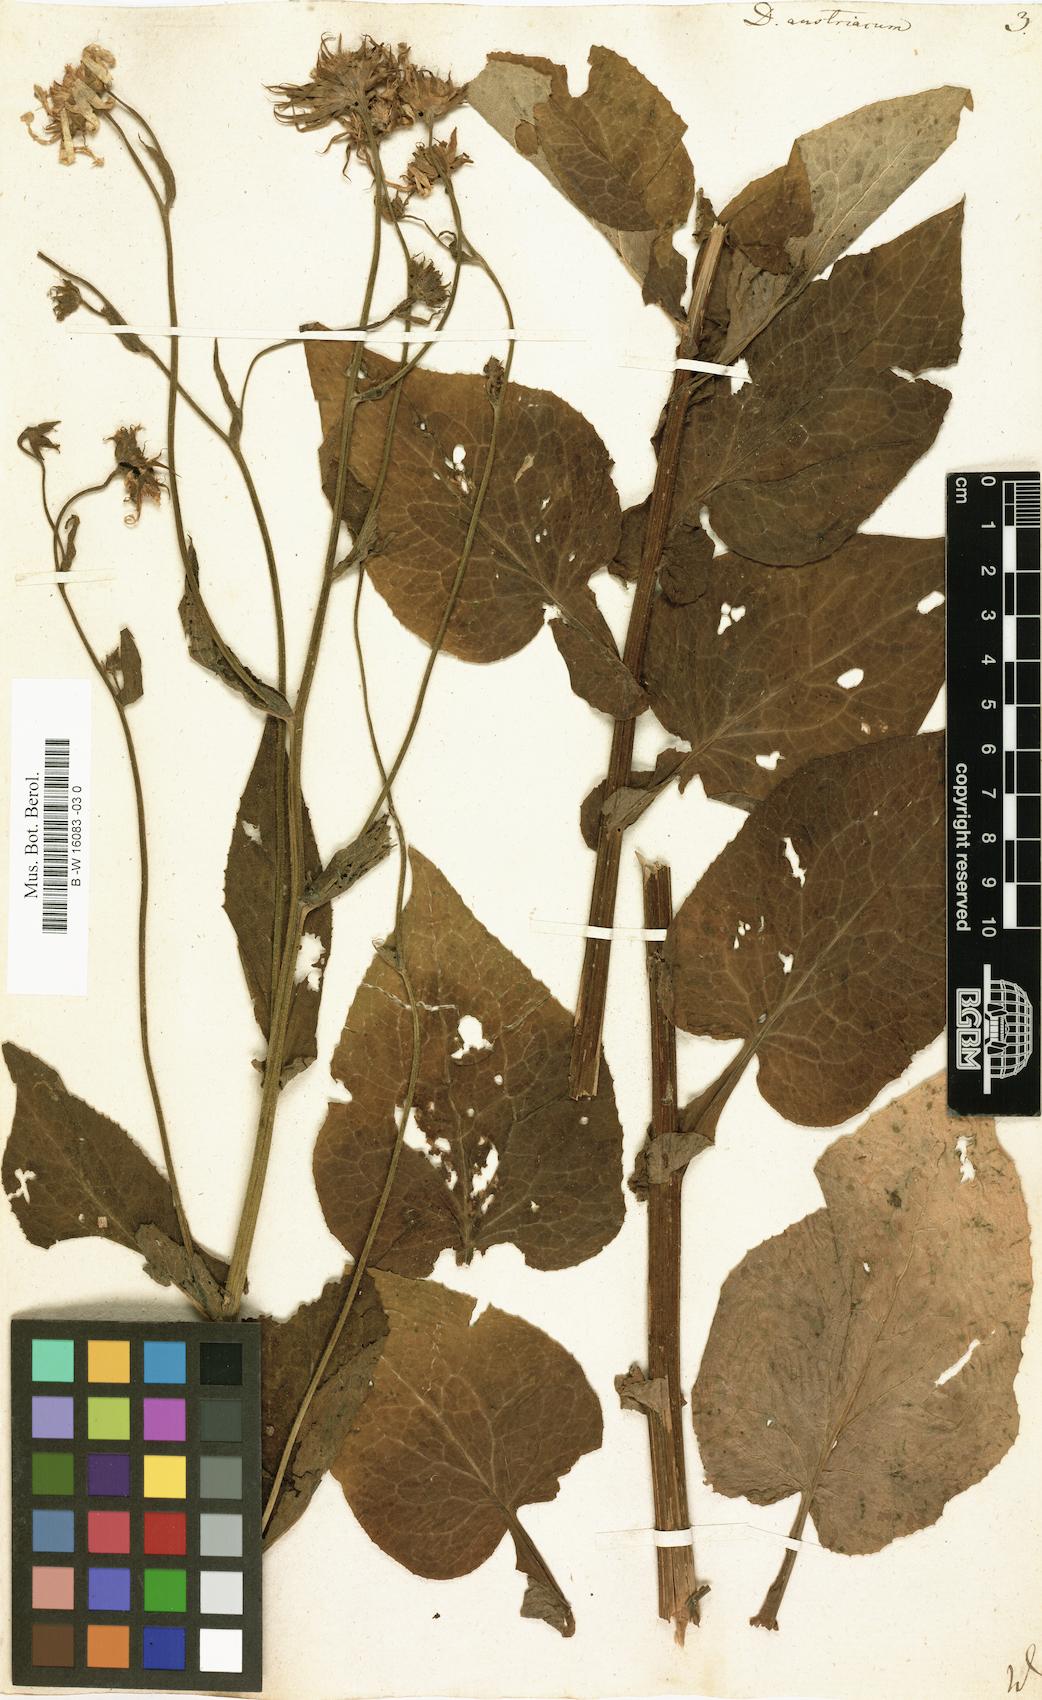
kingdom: Plantae
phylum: Tracheophyta
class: Magnoliopsida
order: Asterales
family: Asteraceae
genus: Doronicum
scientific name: Doronicum austriacum
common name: Austrian leopard's-bane
